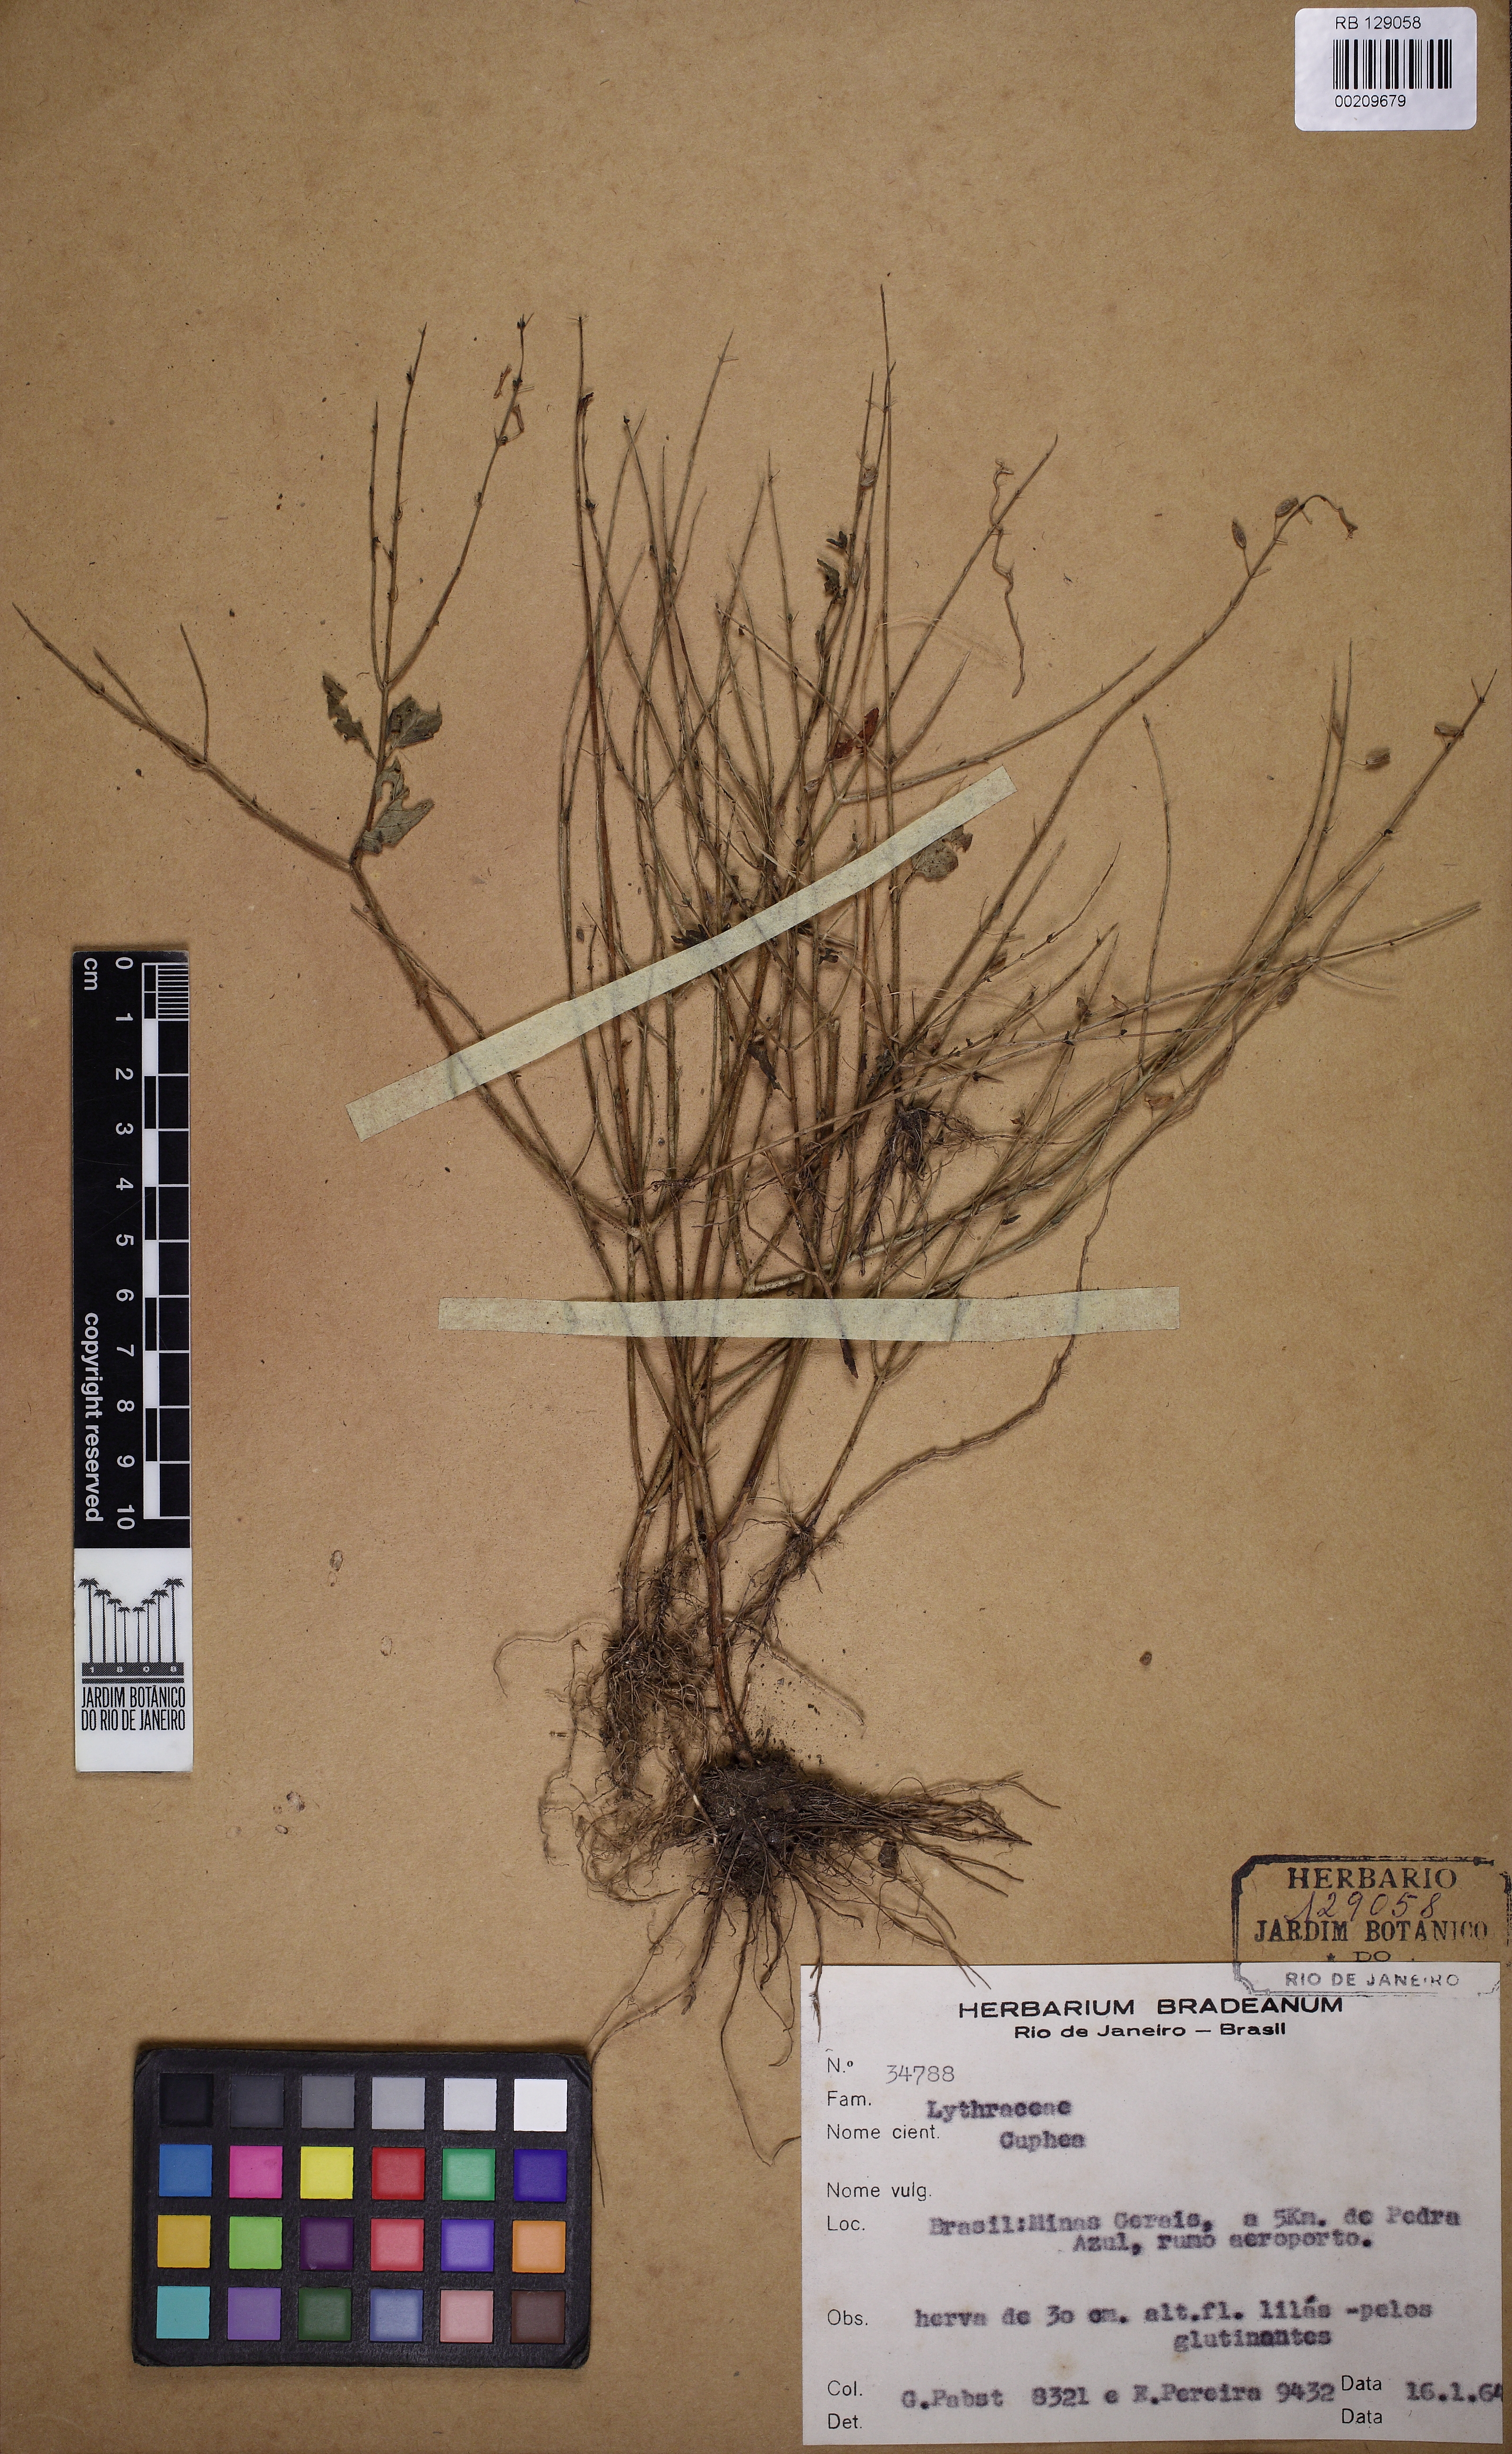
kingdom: Plantae
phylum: Tracheophyta
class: Magnoliopsida
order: Myrtales
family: Lythraceae
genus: Cuphea
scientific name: Cuphea
